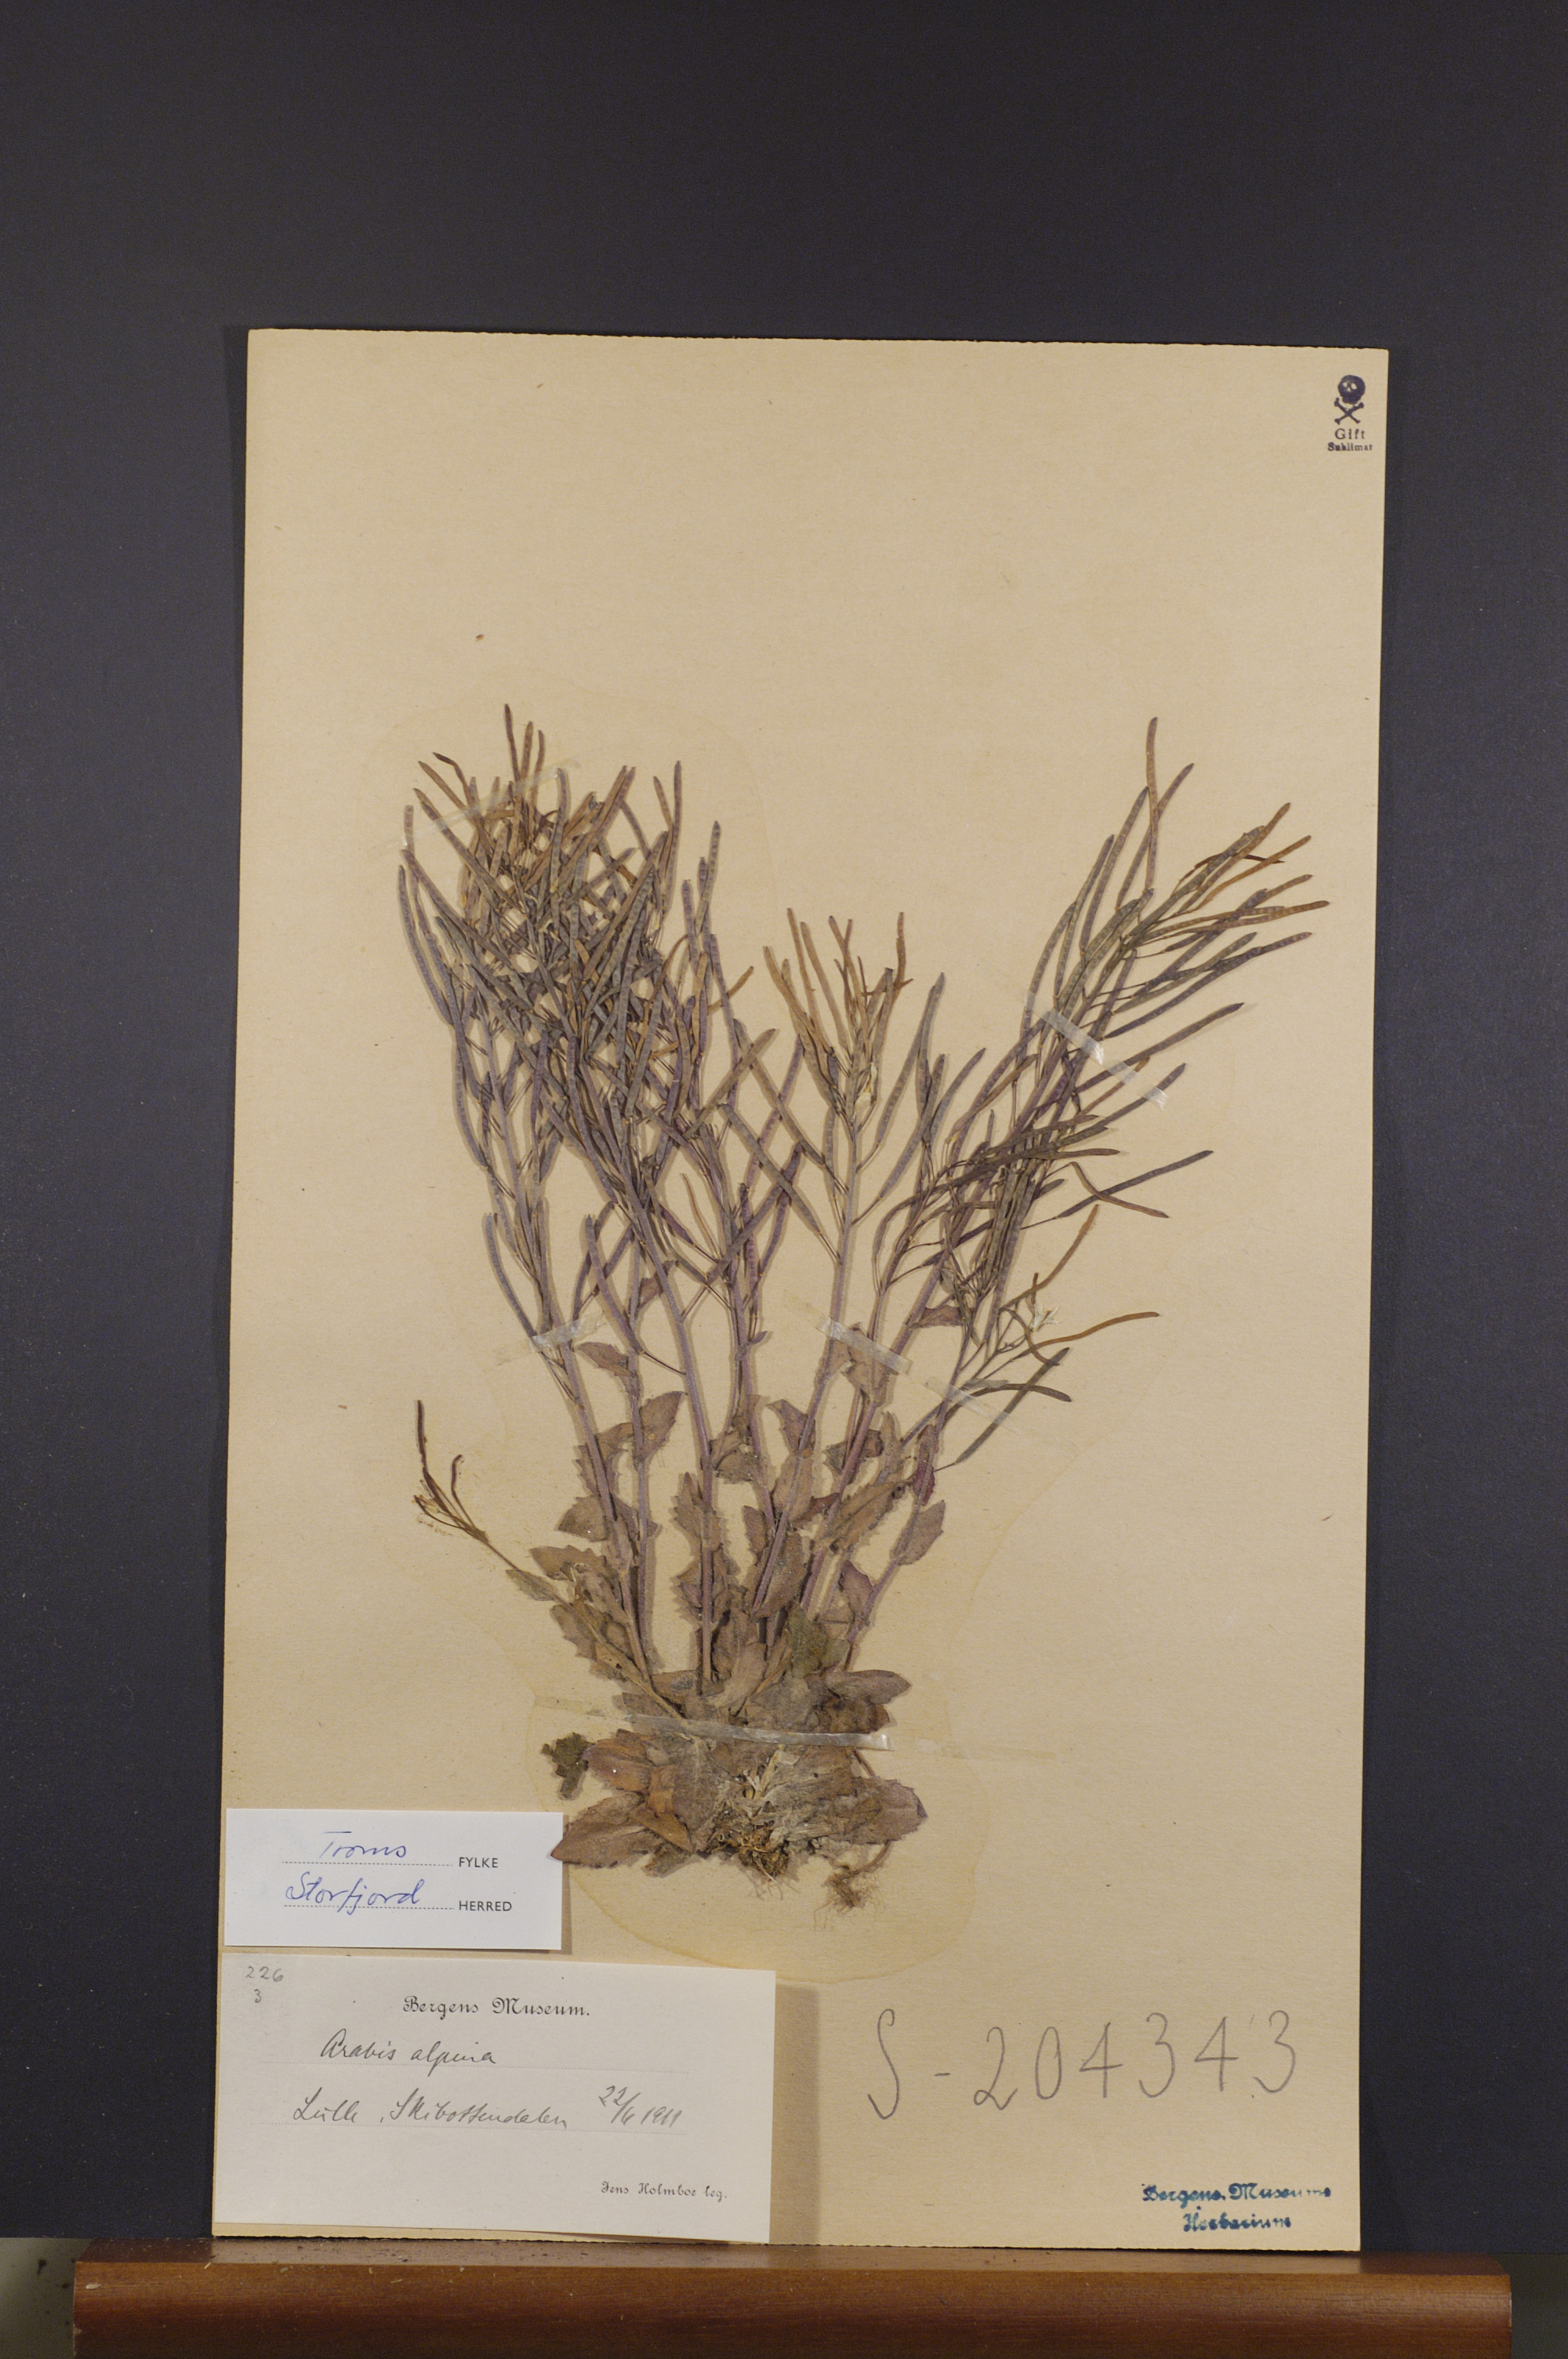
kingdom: Plantae
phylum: Tracheophyta
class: Magnoliopsida
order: Brassicales
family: Brassicaceae
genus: Arabis
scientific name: Arabis alpina
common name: Alpine rock-cress
